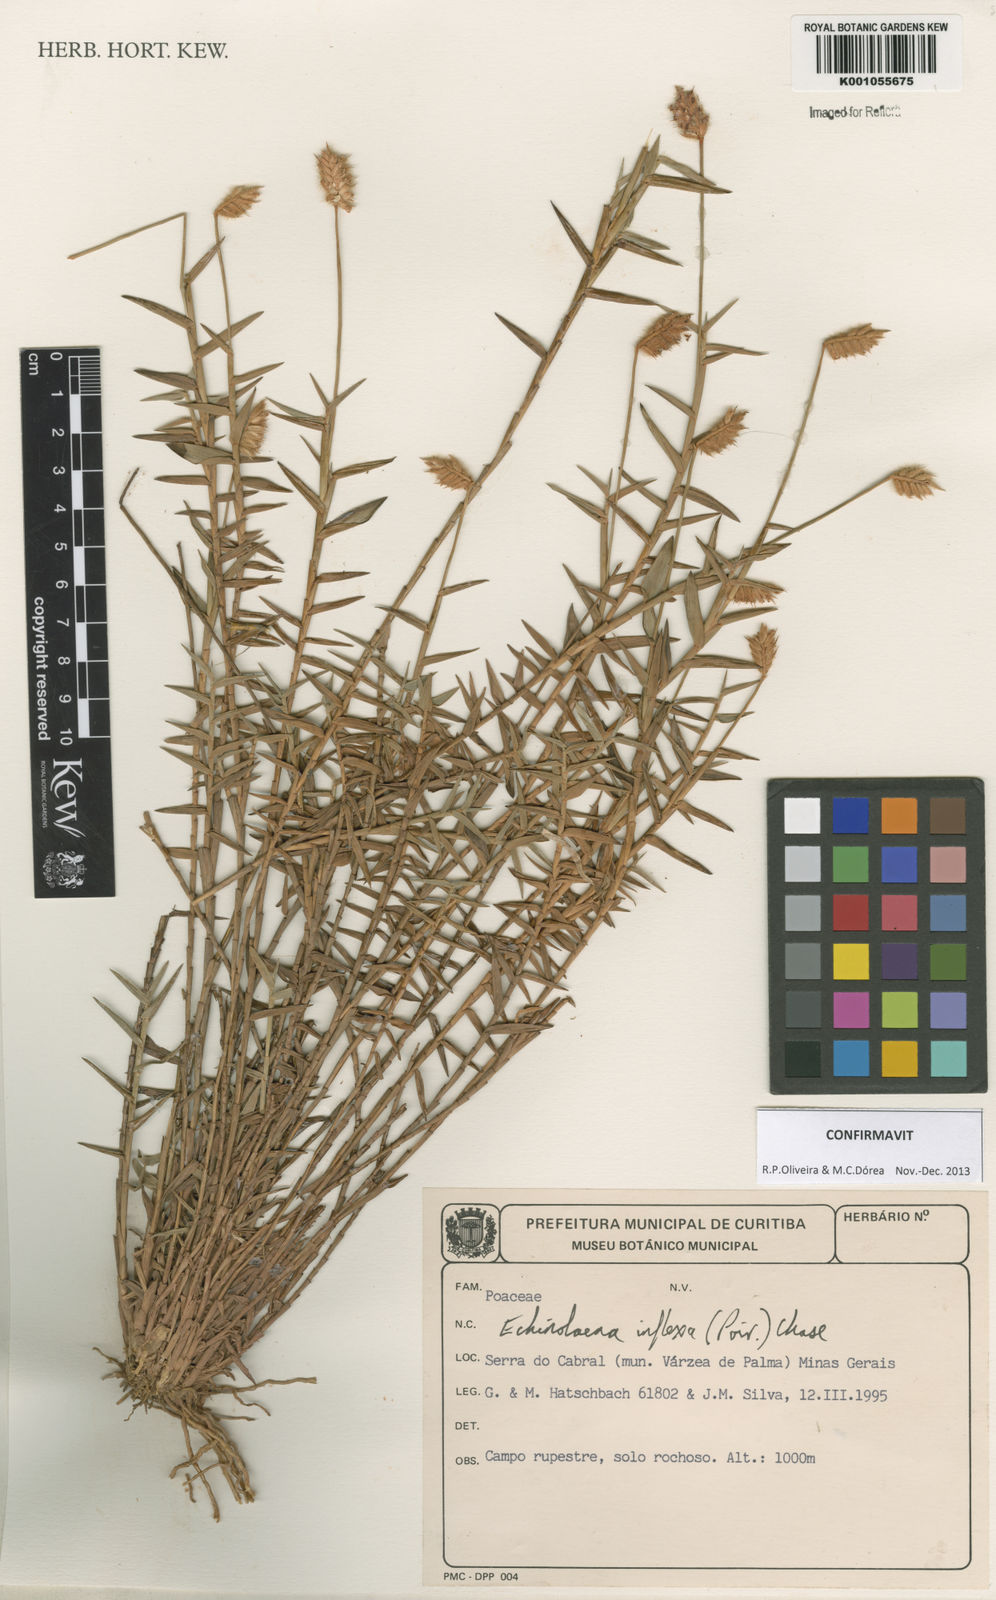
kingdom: Plantae
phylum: Tracheophyta
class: Liliopsida
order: Poales
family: Poaceae
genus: Echinolaena
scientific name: Echinolaena inflexa
